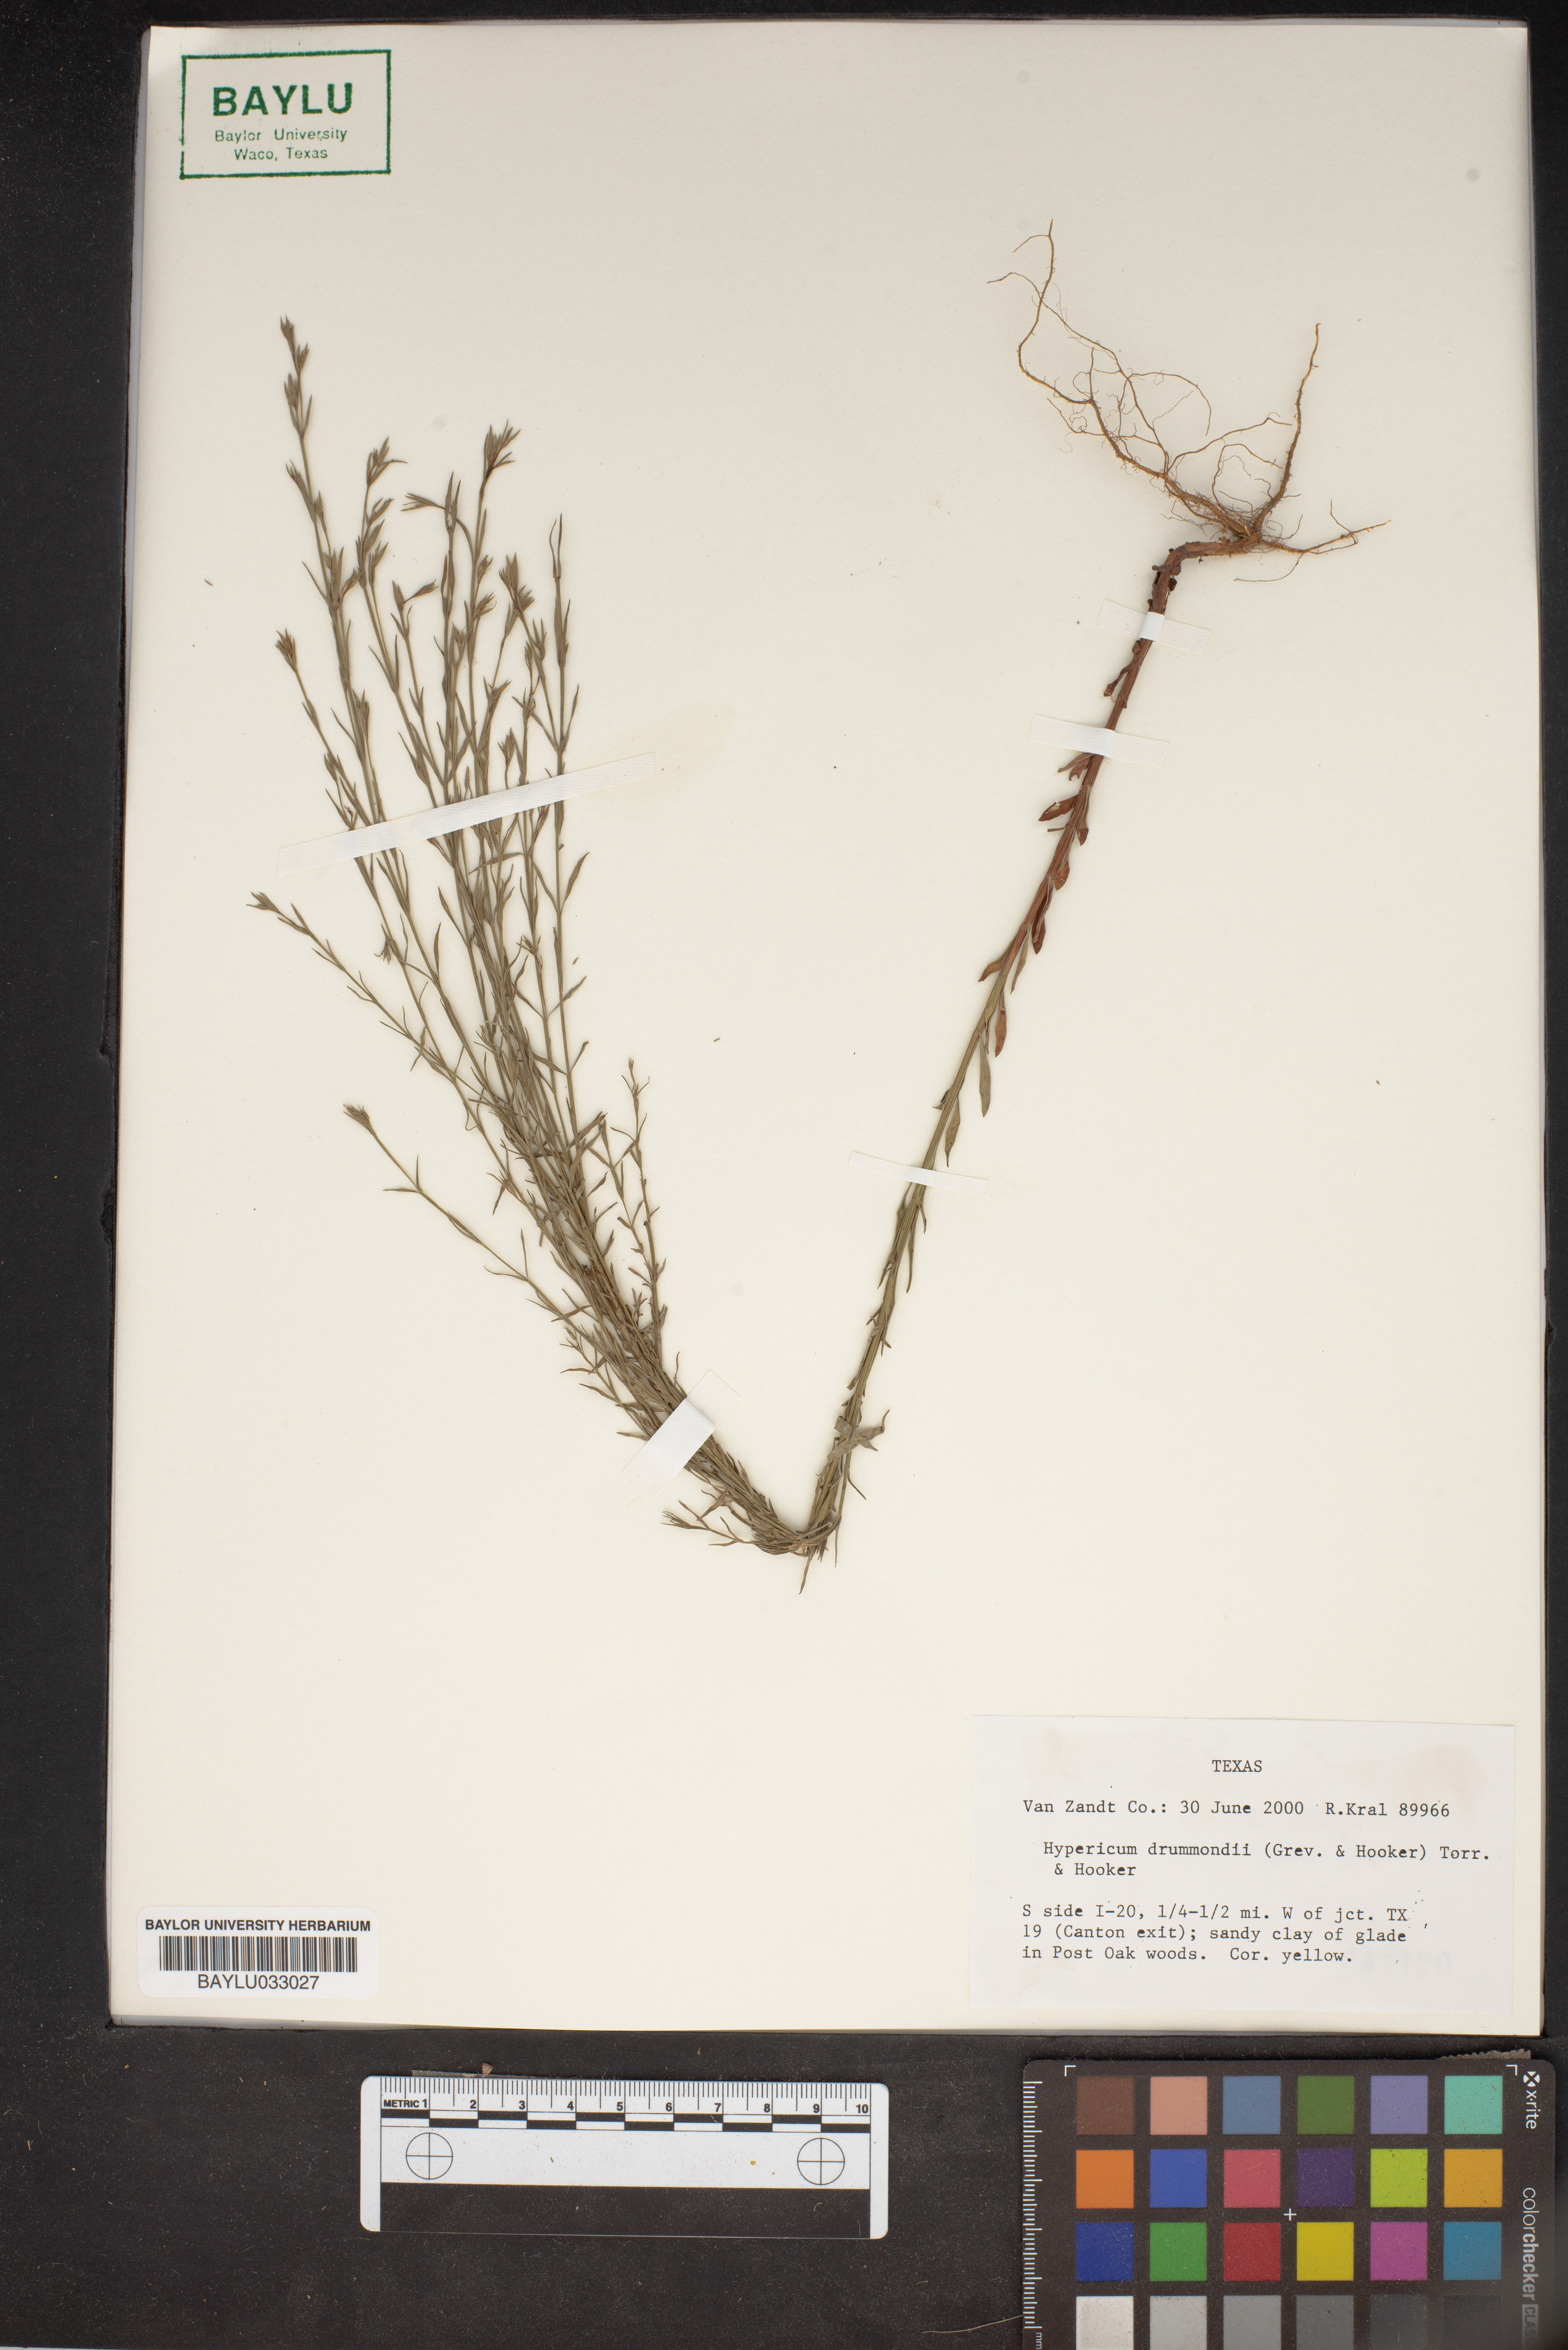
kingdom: Plantae
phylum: Tracheophyta
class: Magnoliopsida
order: Malpighiales
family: Hypericaceae
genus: Hypericum
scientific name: Hypericum drummondii
